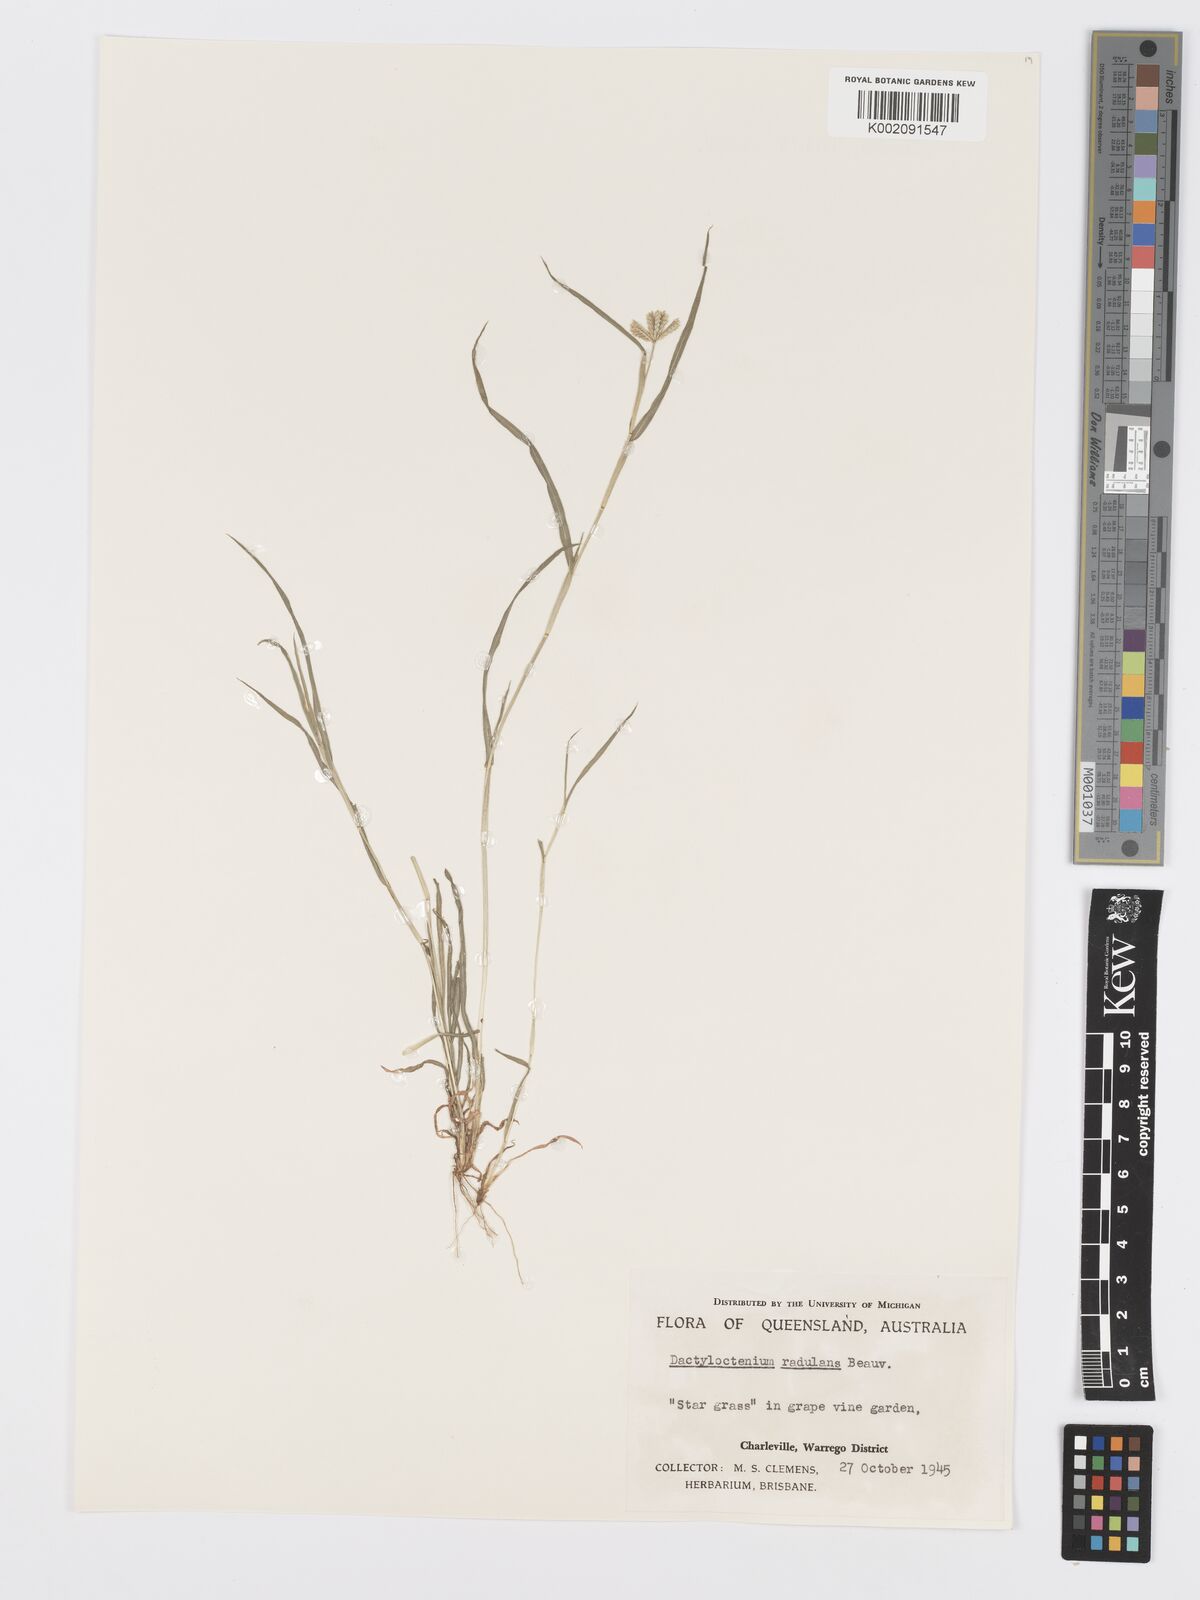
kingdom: Plantae
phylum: Tracheophyta
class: Liliopsida
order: Poales
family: Poaceae
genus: Dactyloctenium
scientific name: Dactyloctenium radulans
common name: Button-grass
